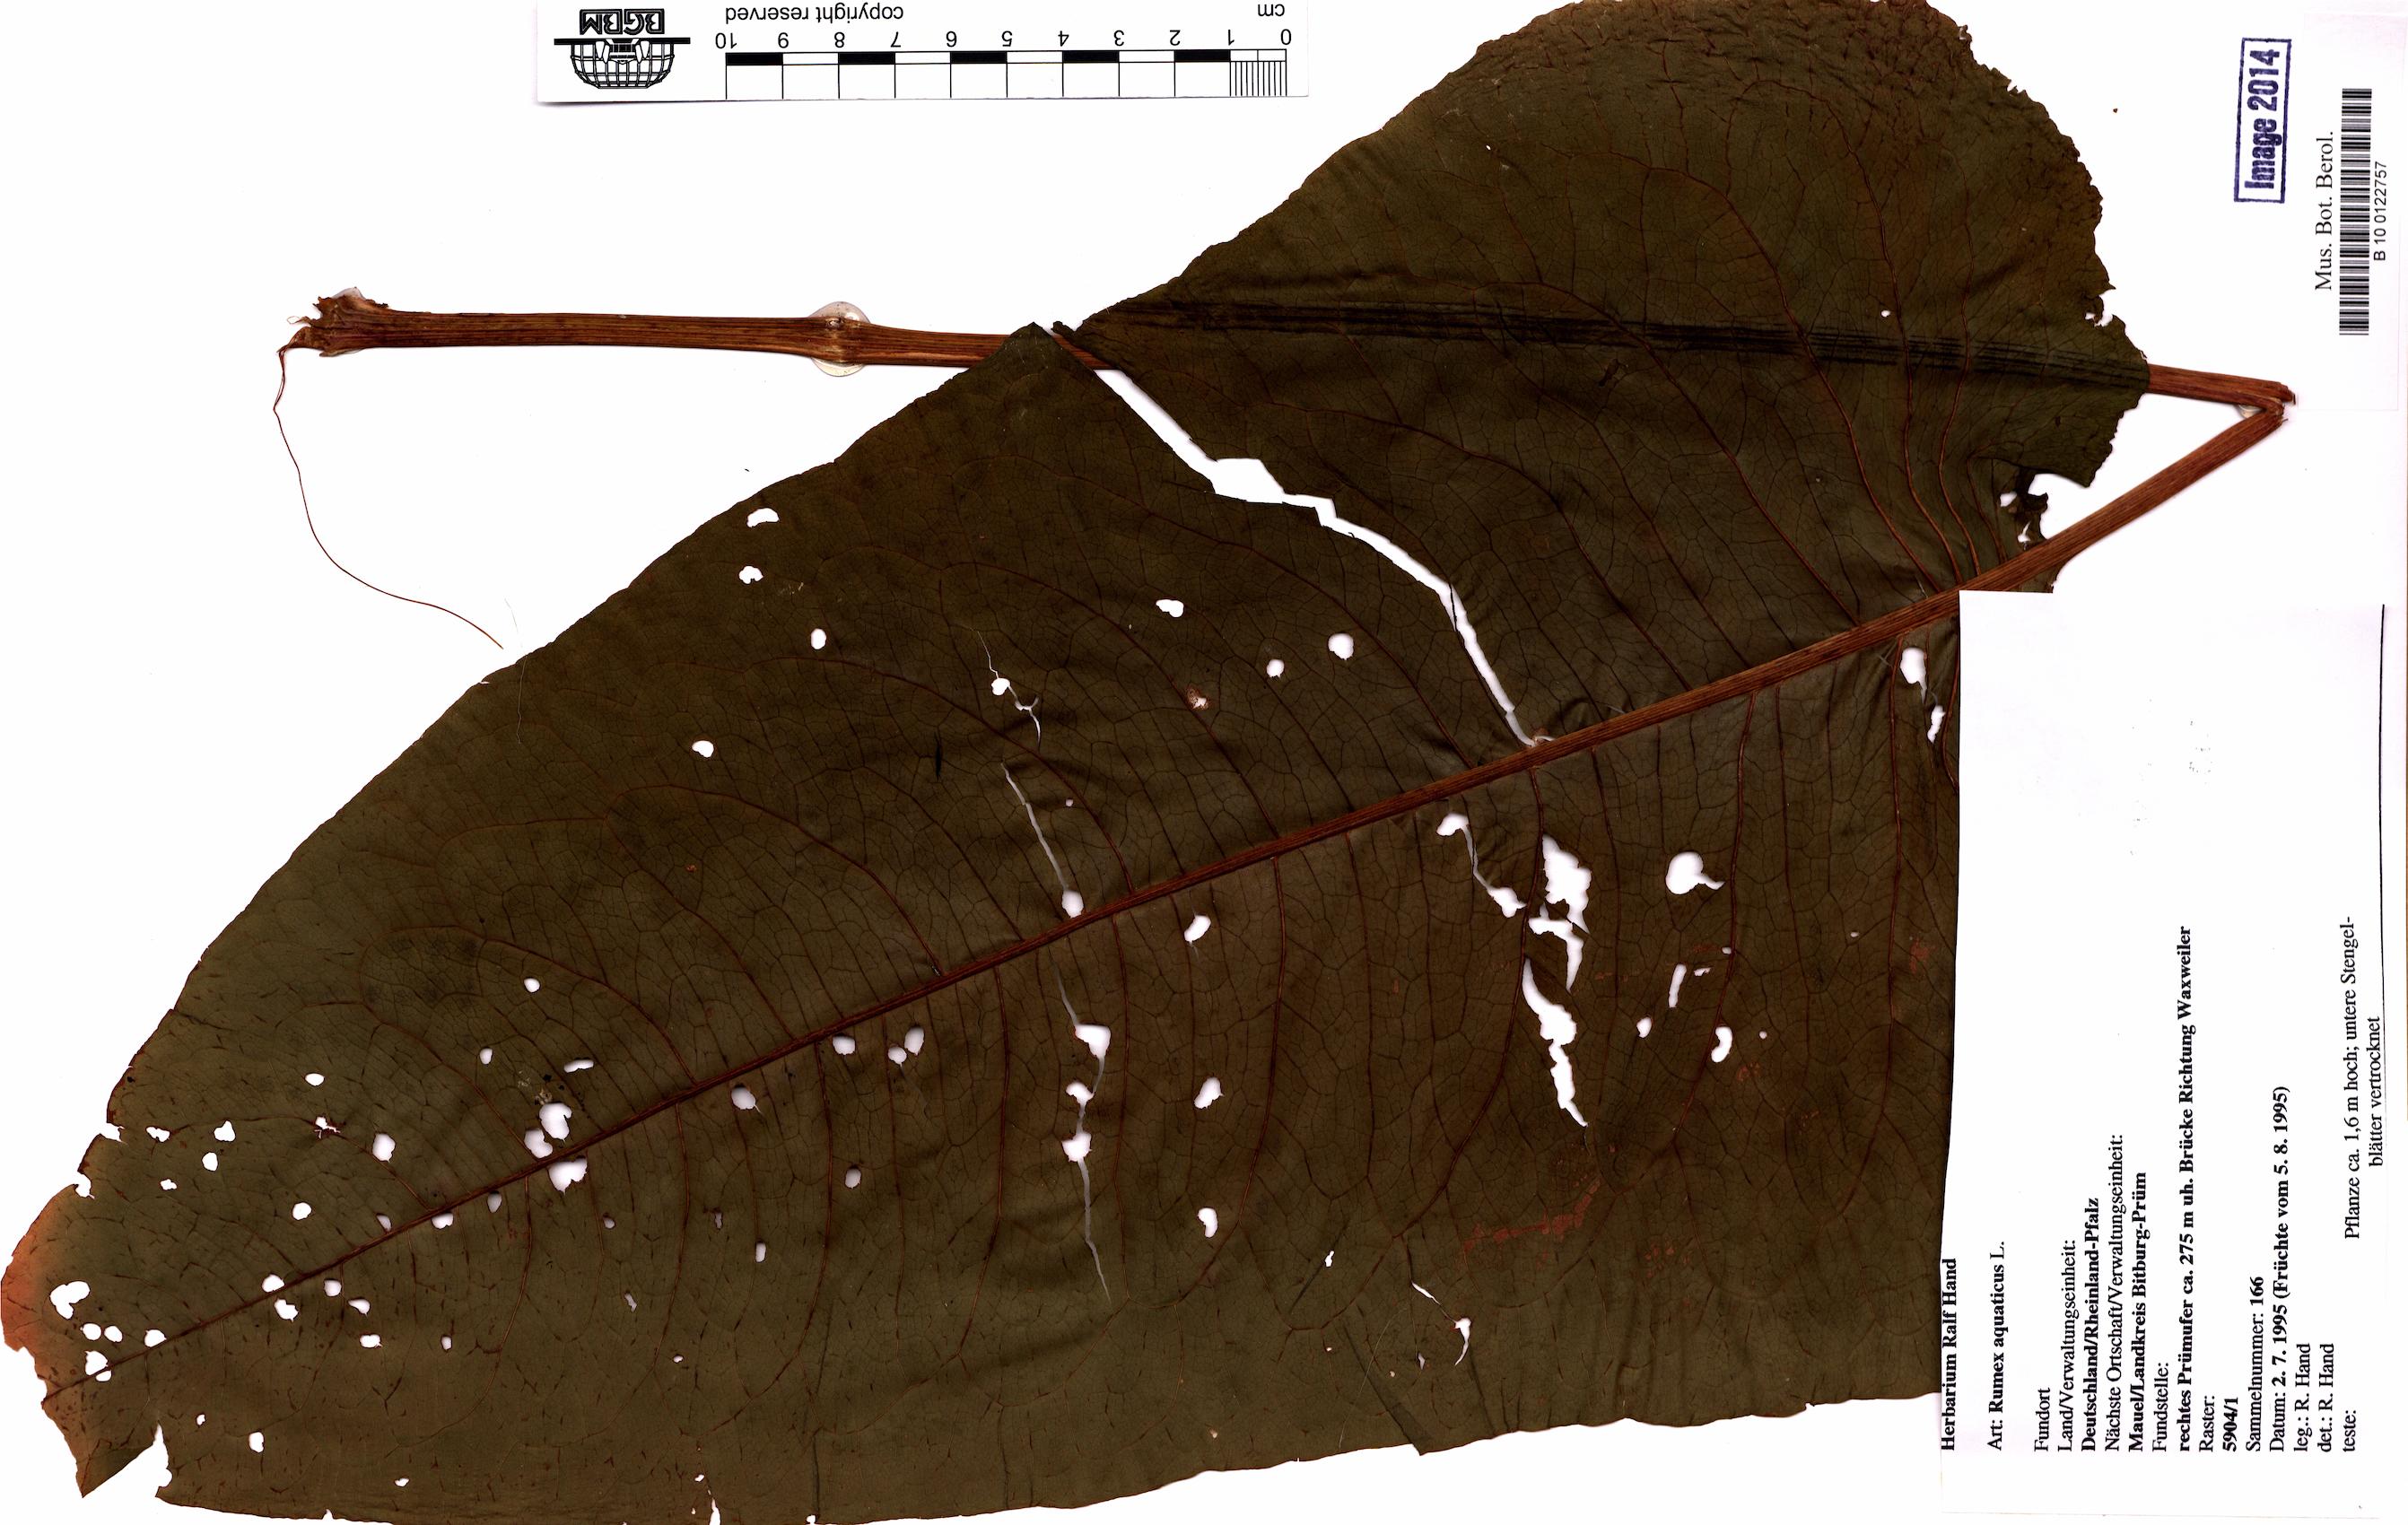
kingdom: Plantae
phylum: Tracheophyta
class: Magnoliopsida
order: Caryophyllales
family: Polygonaceae
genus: Rumex
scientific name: Rumex aquaticus
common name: Scottish dock
